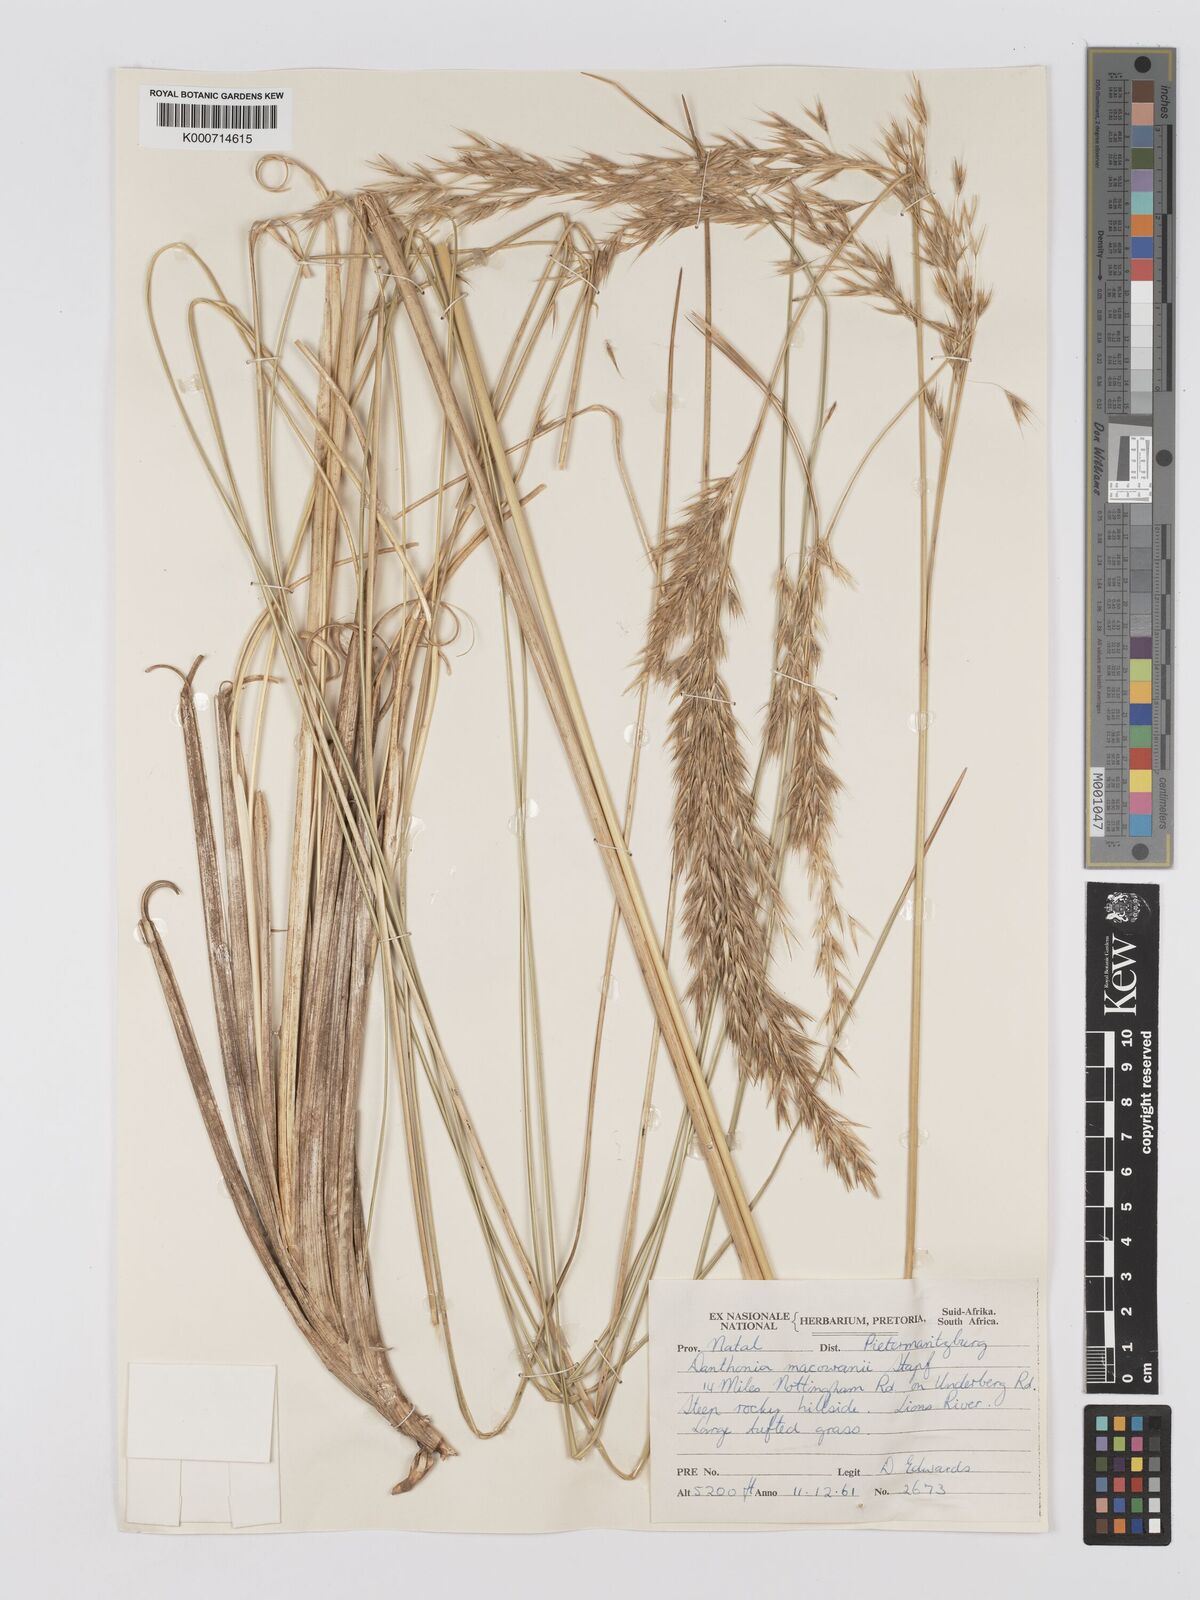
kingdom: Plantae
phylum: Tracheophyta
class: Liliopsida
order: Poales
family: Poaceae
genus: Rytidosperma
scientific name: Rytidosperma
